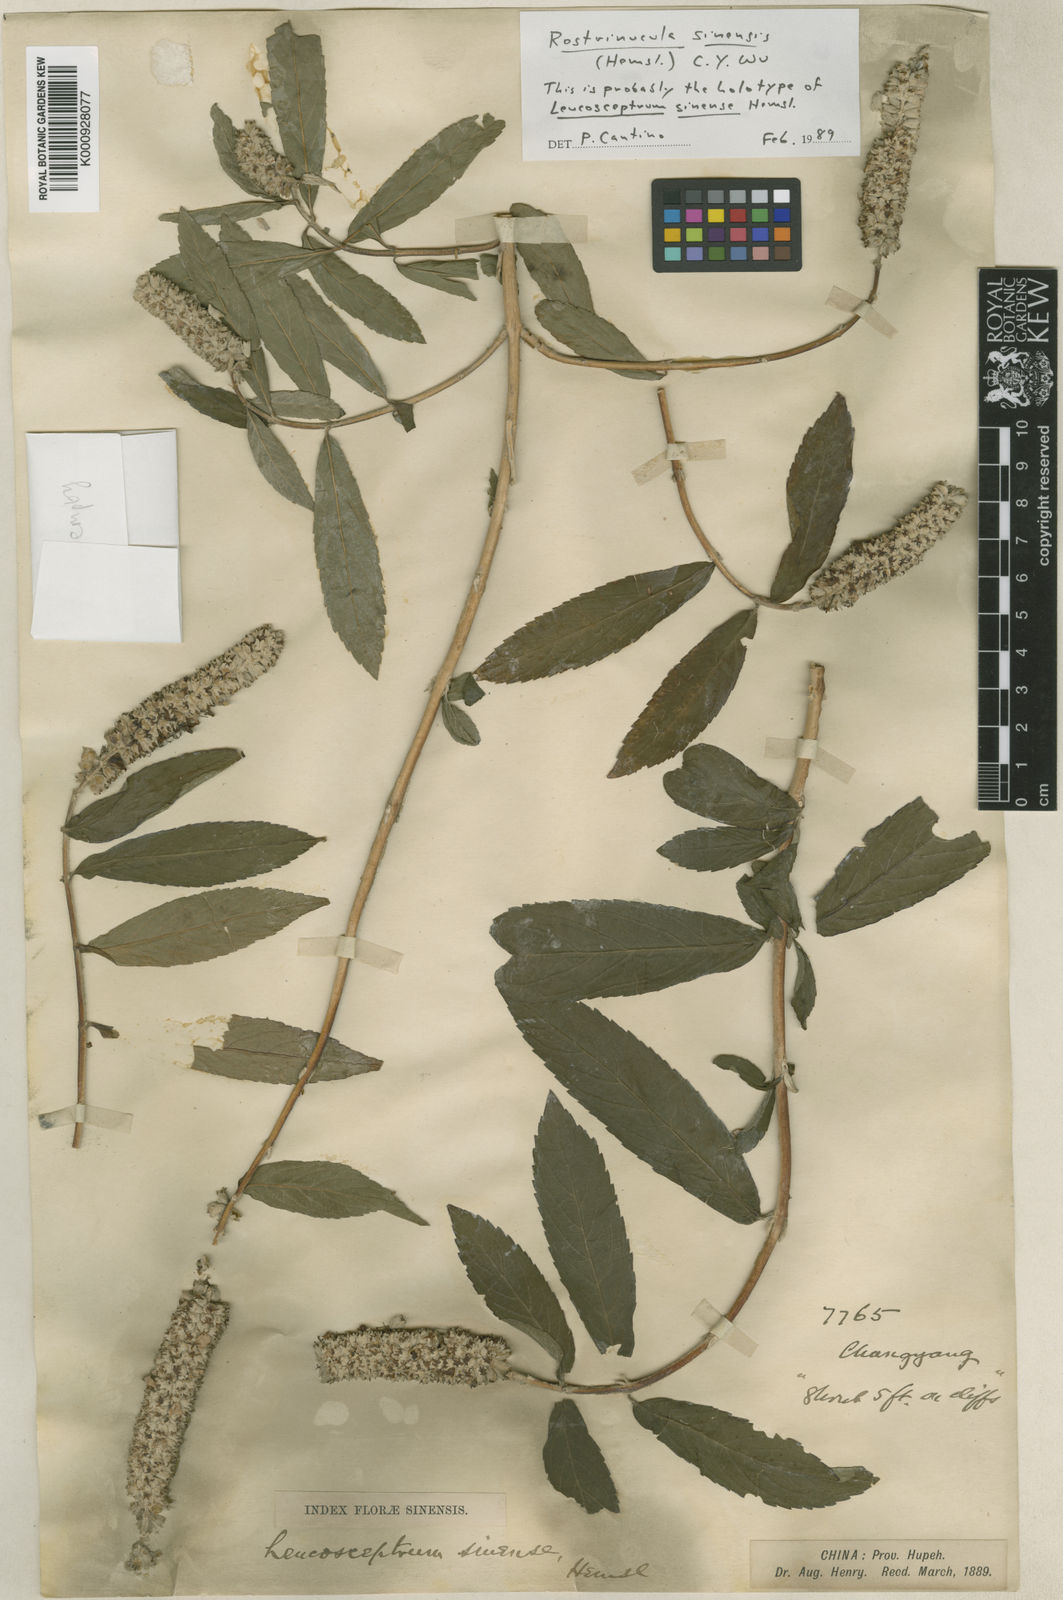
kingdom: Plantae
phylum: Tracheophyta
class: Magnoliopsida
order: Lamiales
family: Lamiaceae
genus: Rostrinucula
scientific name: Rostrinucula sinensis
